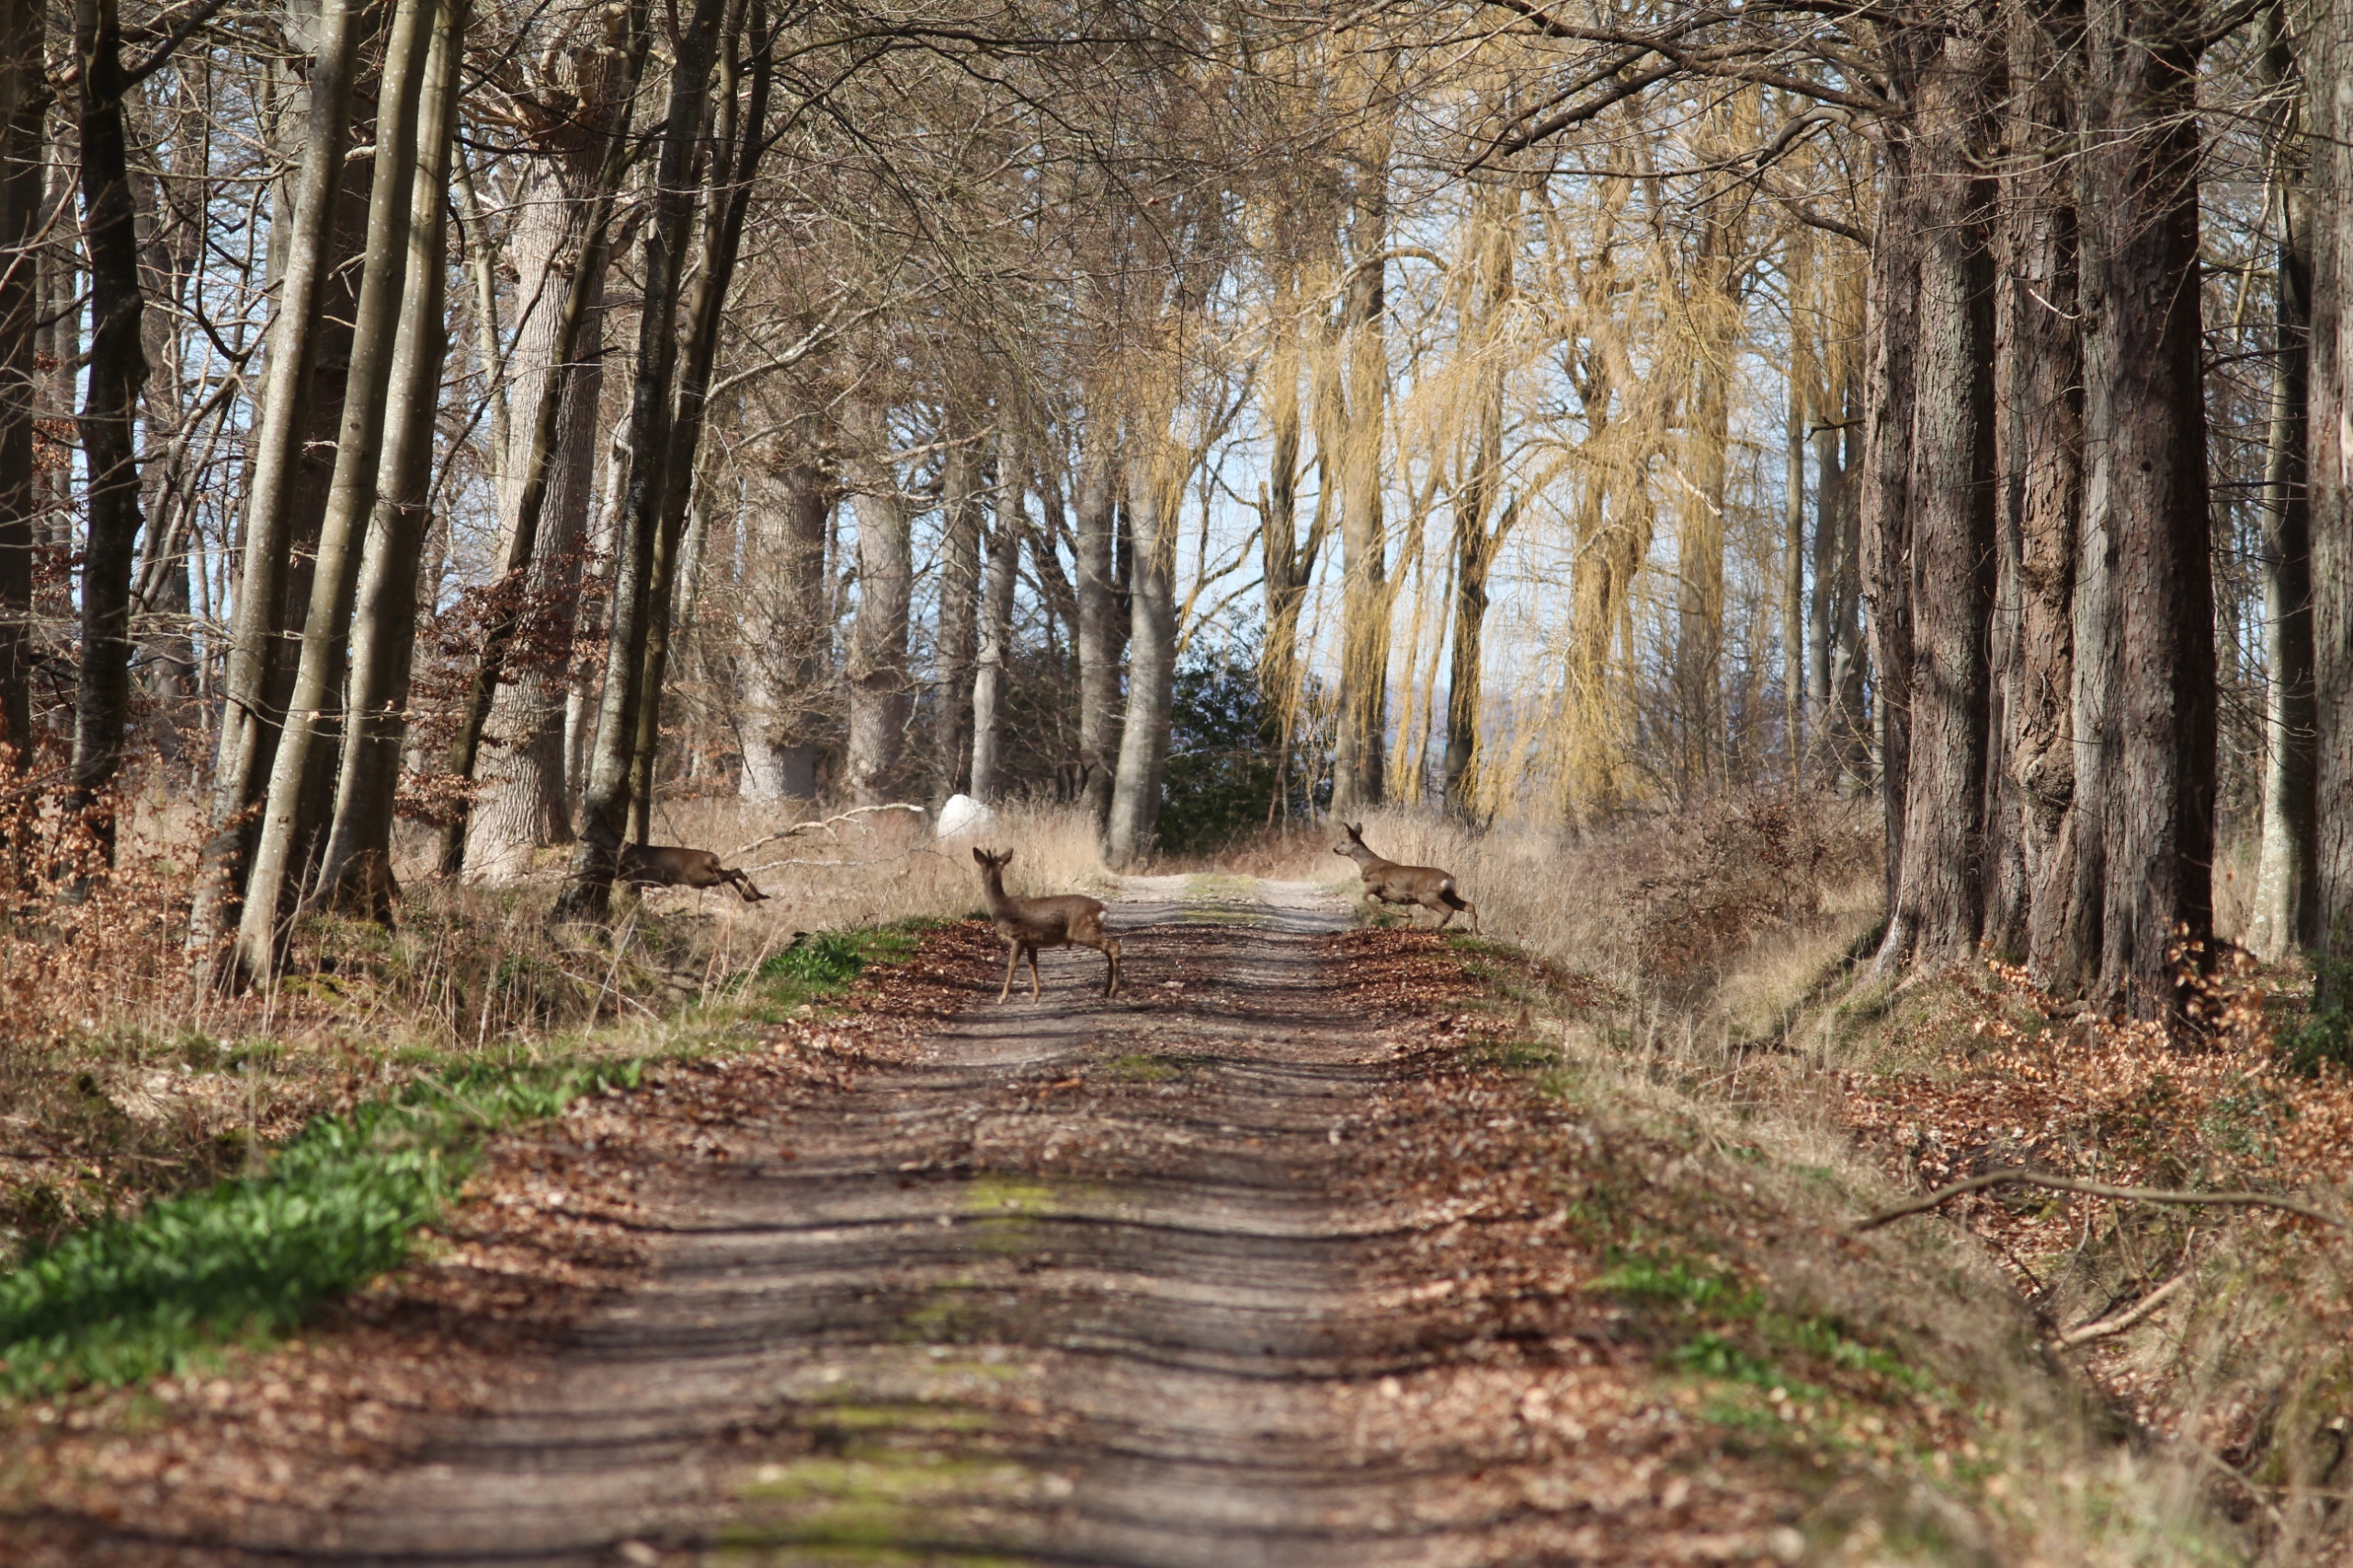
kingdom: Animalia
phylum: Chordata
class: Mammalia
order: Artiodactyla
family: Cervidae
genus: Capreolus
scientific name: Capreolus capreolus
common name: Rådyr
